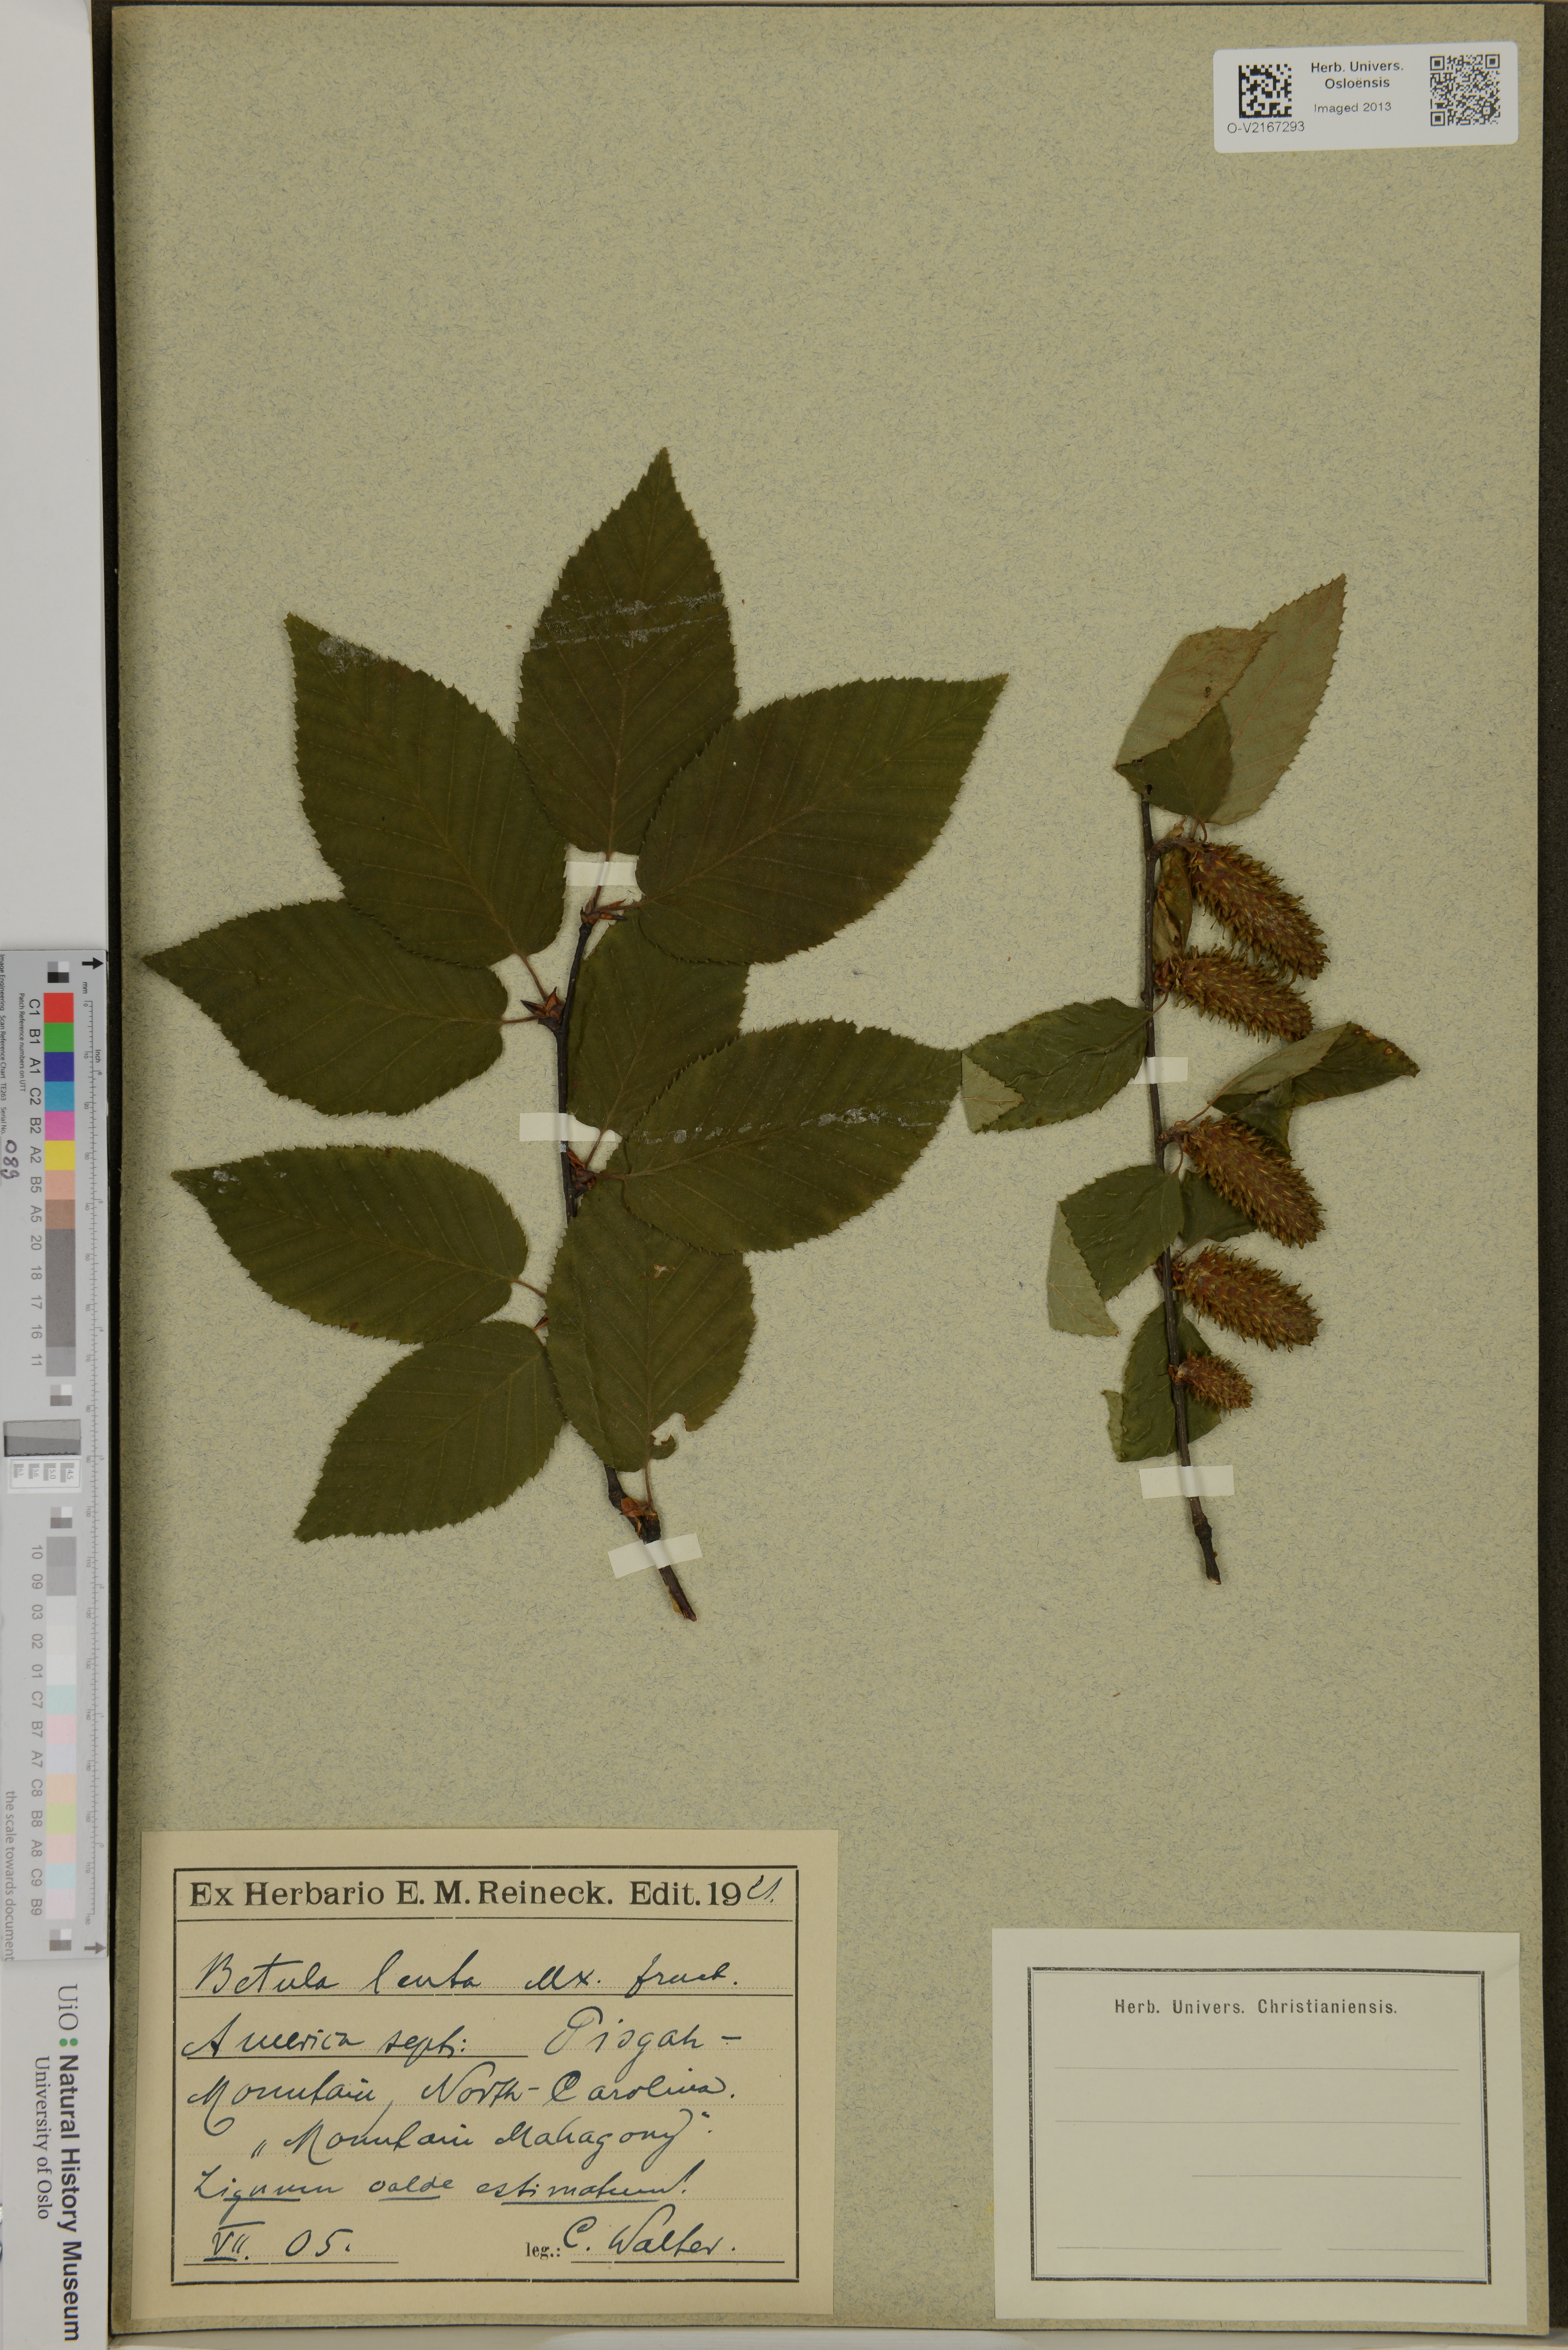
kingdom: Plantae
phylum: Tracheophyta
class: Magnoliopsida
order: Fagales
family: Betulaceae
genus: Betula
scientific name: Betula lenta
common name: Black birch
